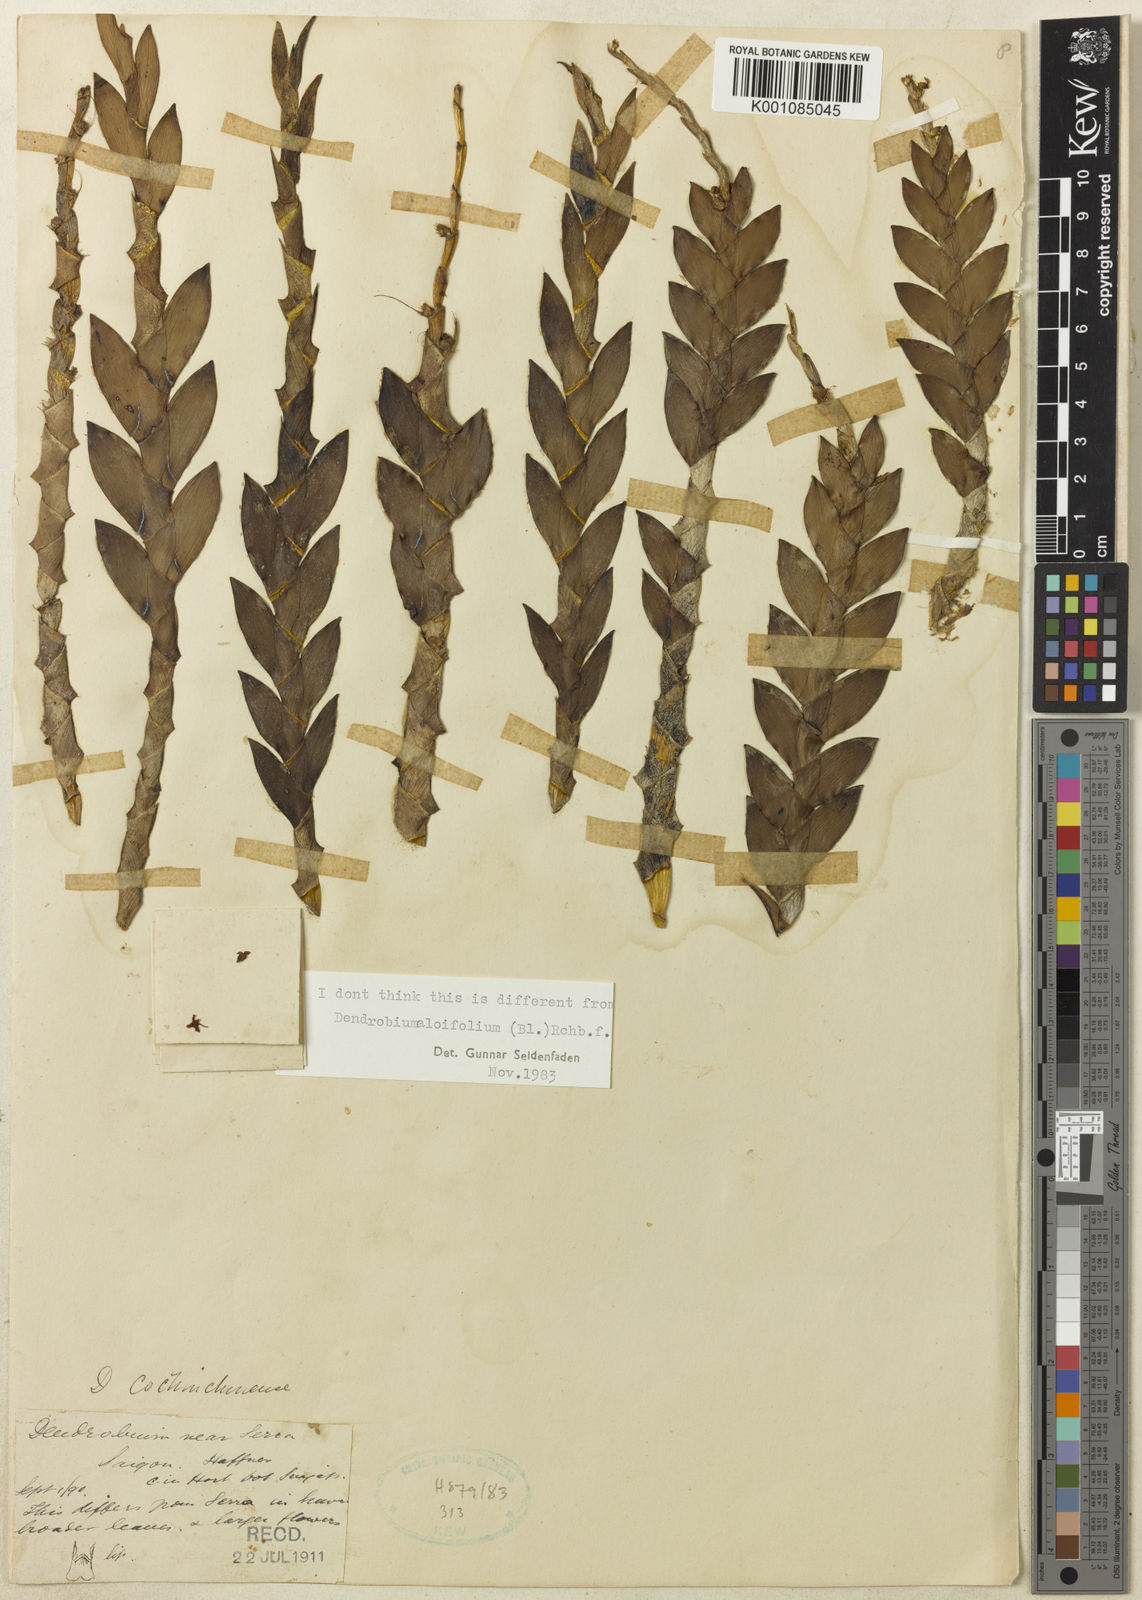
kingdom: Plantae
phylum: Tracheophyta
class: Liliopsida
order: Asparagales
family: Orchidaceae
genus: Dendrobium
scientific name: Dendrobium aloifolium
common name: Aloe-like dendrobium
